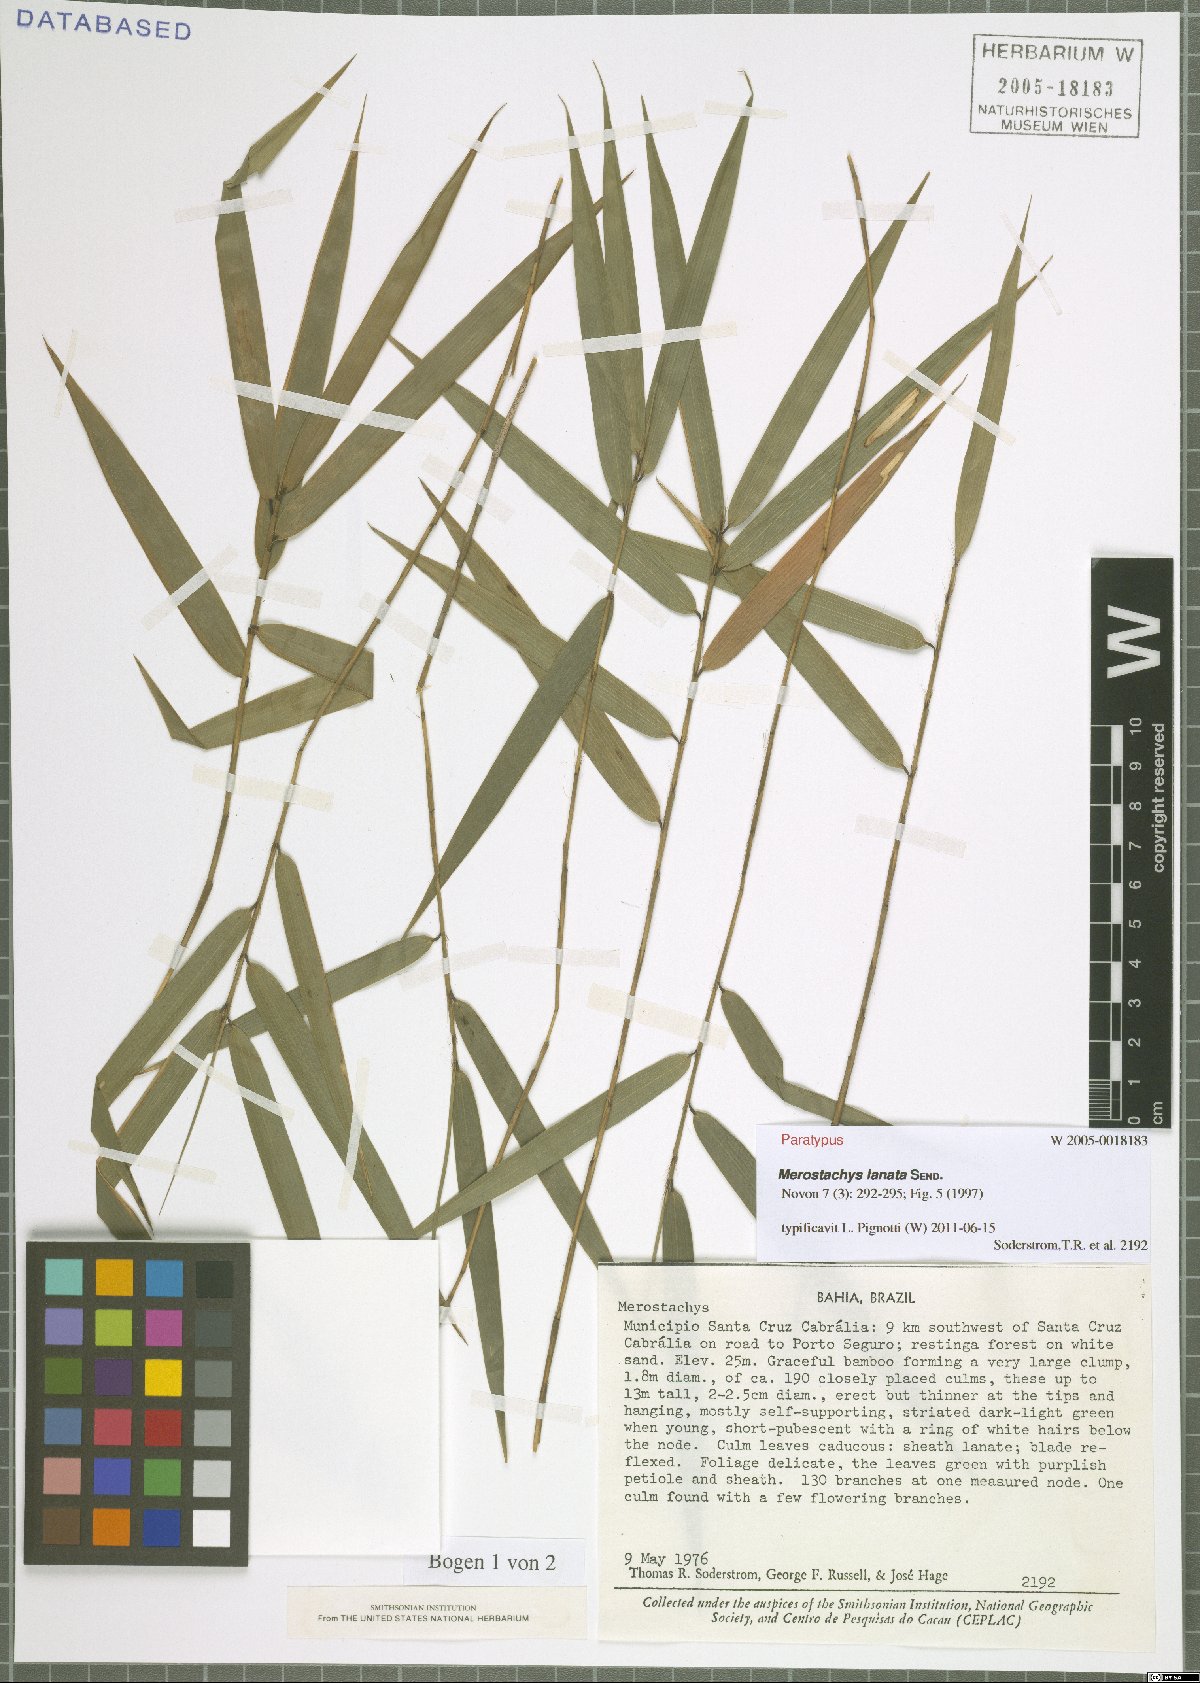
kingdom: Plantae
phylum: Tracheophyta
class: Liliopsida
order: Poales
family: Poaceae
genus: Merostachys
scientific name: Merostachys lanata
